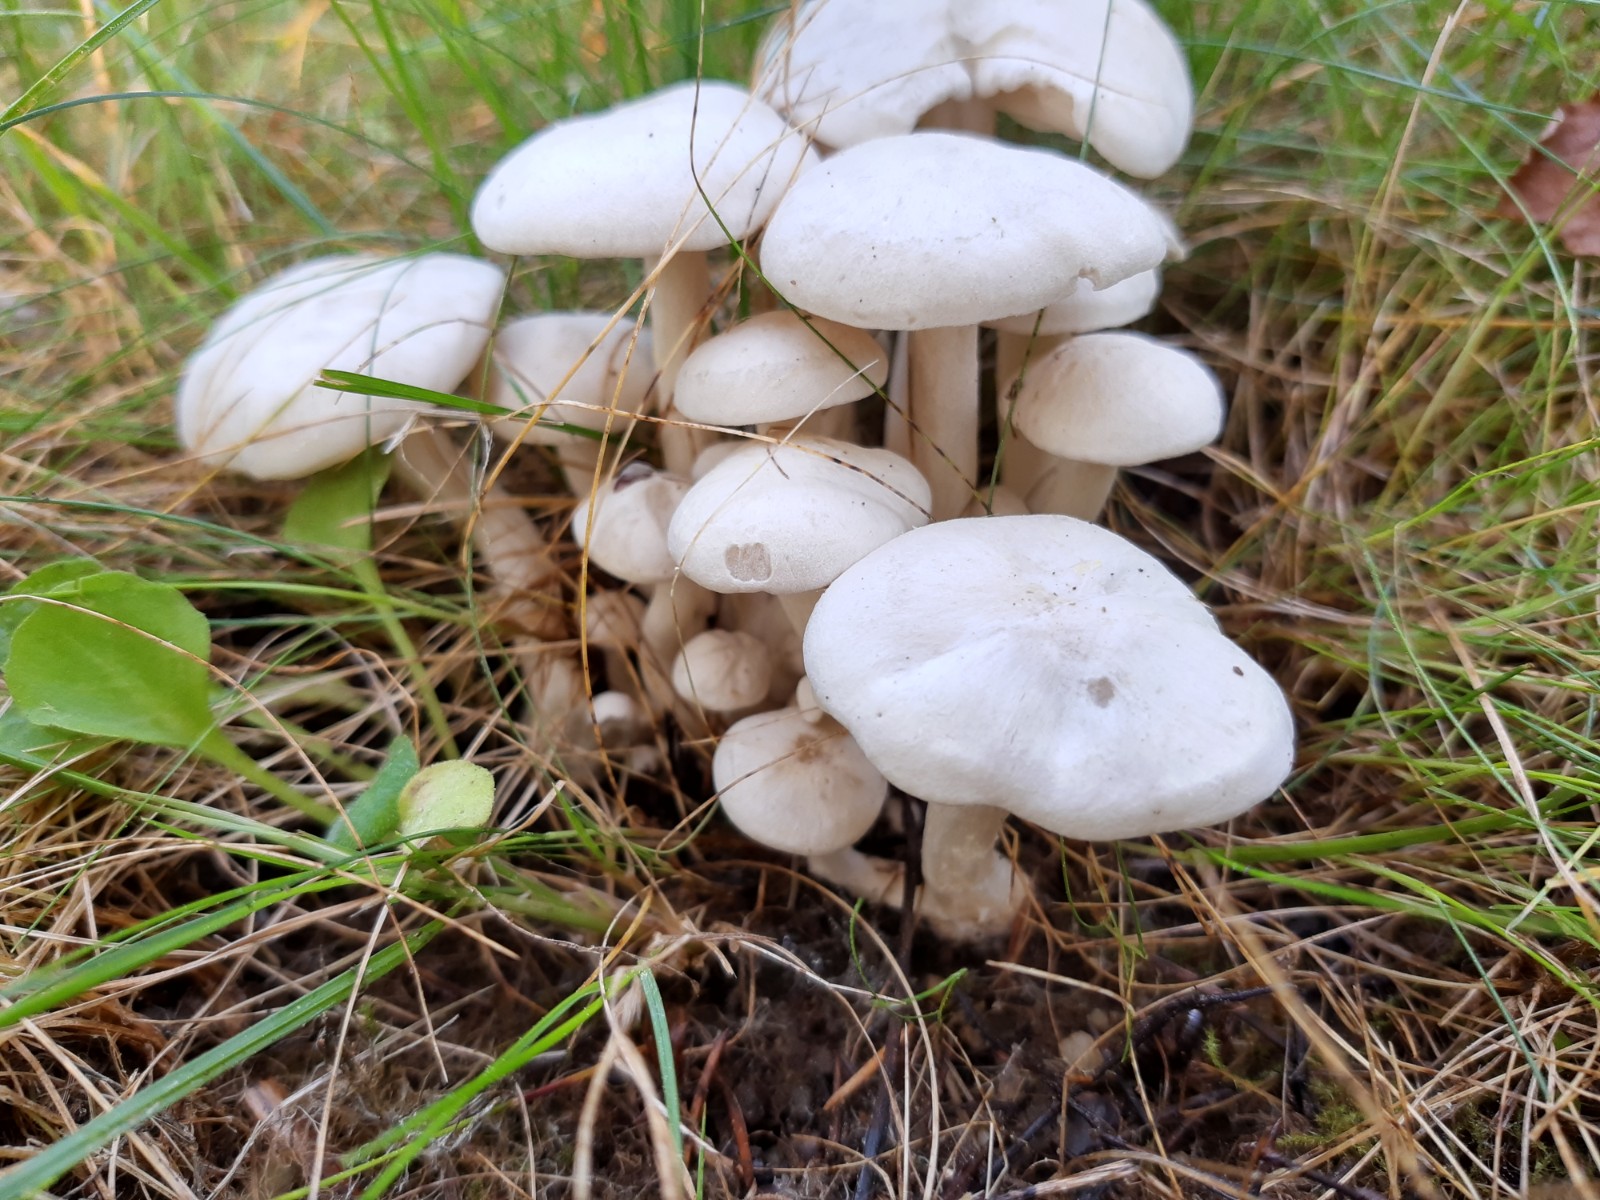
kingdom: Fungi
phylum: Basidiomycota
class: Agaricomycetes
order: Agaricales
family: Tricholomataceae
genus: Leucocybe
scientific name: Leucocybe connata
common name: knippe-tragthat
